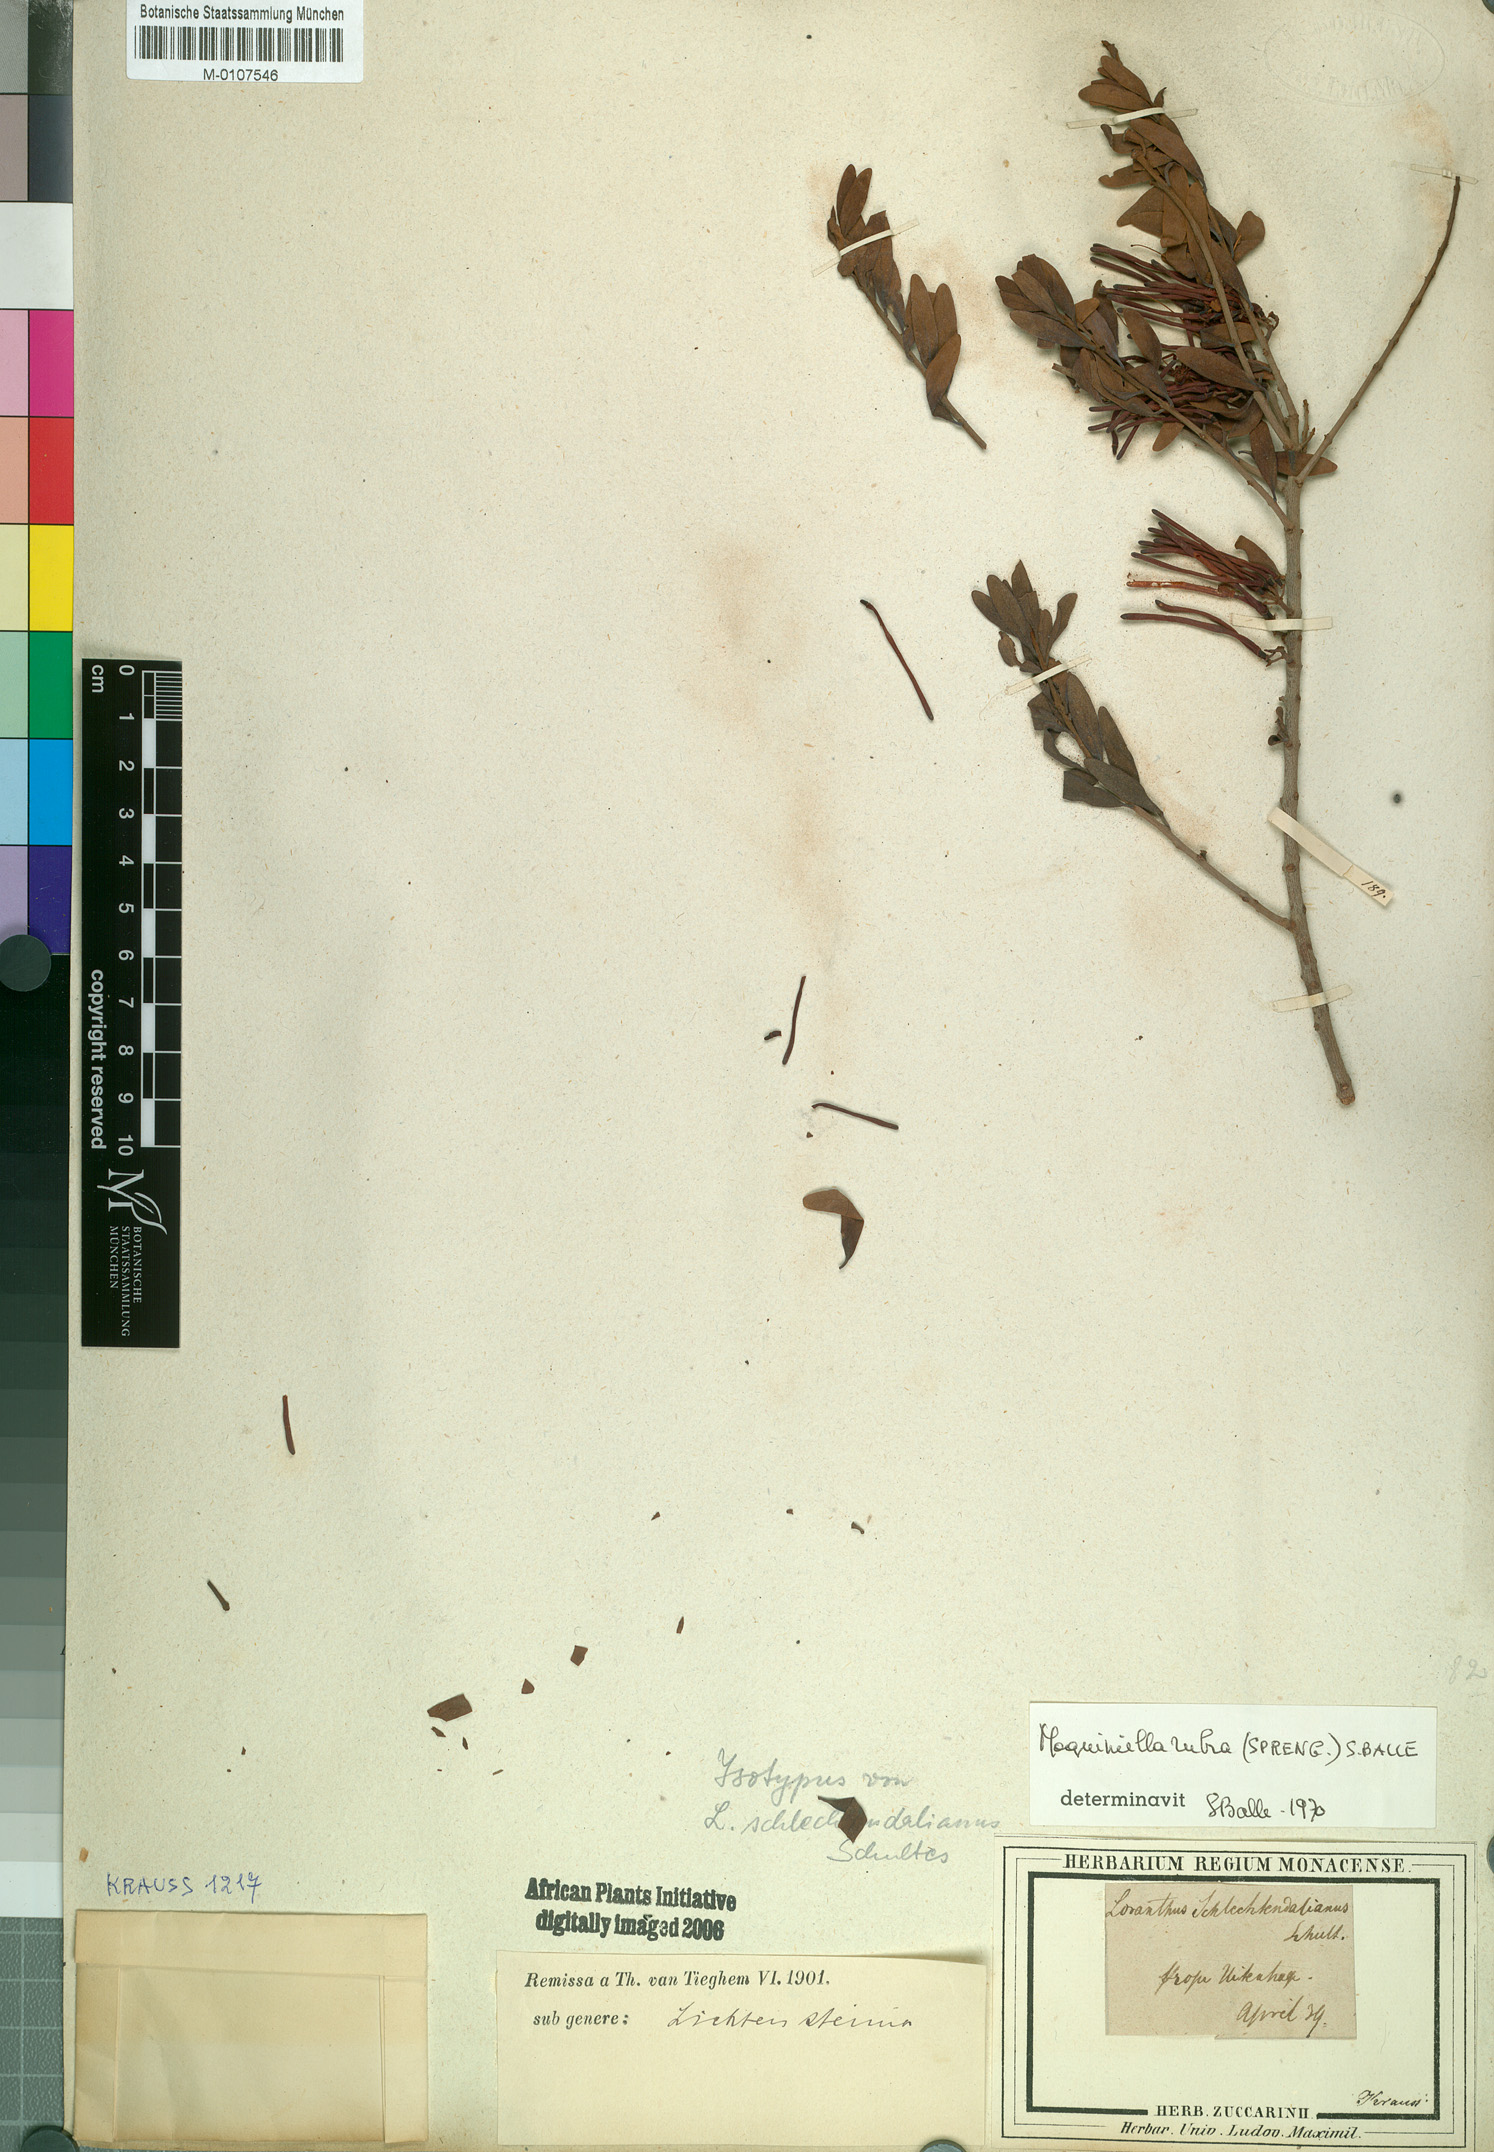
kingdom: Plantae
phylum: Tracheophyta
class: Magnoliopsida
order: Santalales
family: Loranthaceae
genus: Moquiniella
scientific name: Moquiniella rubra
